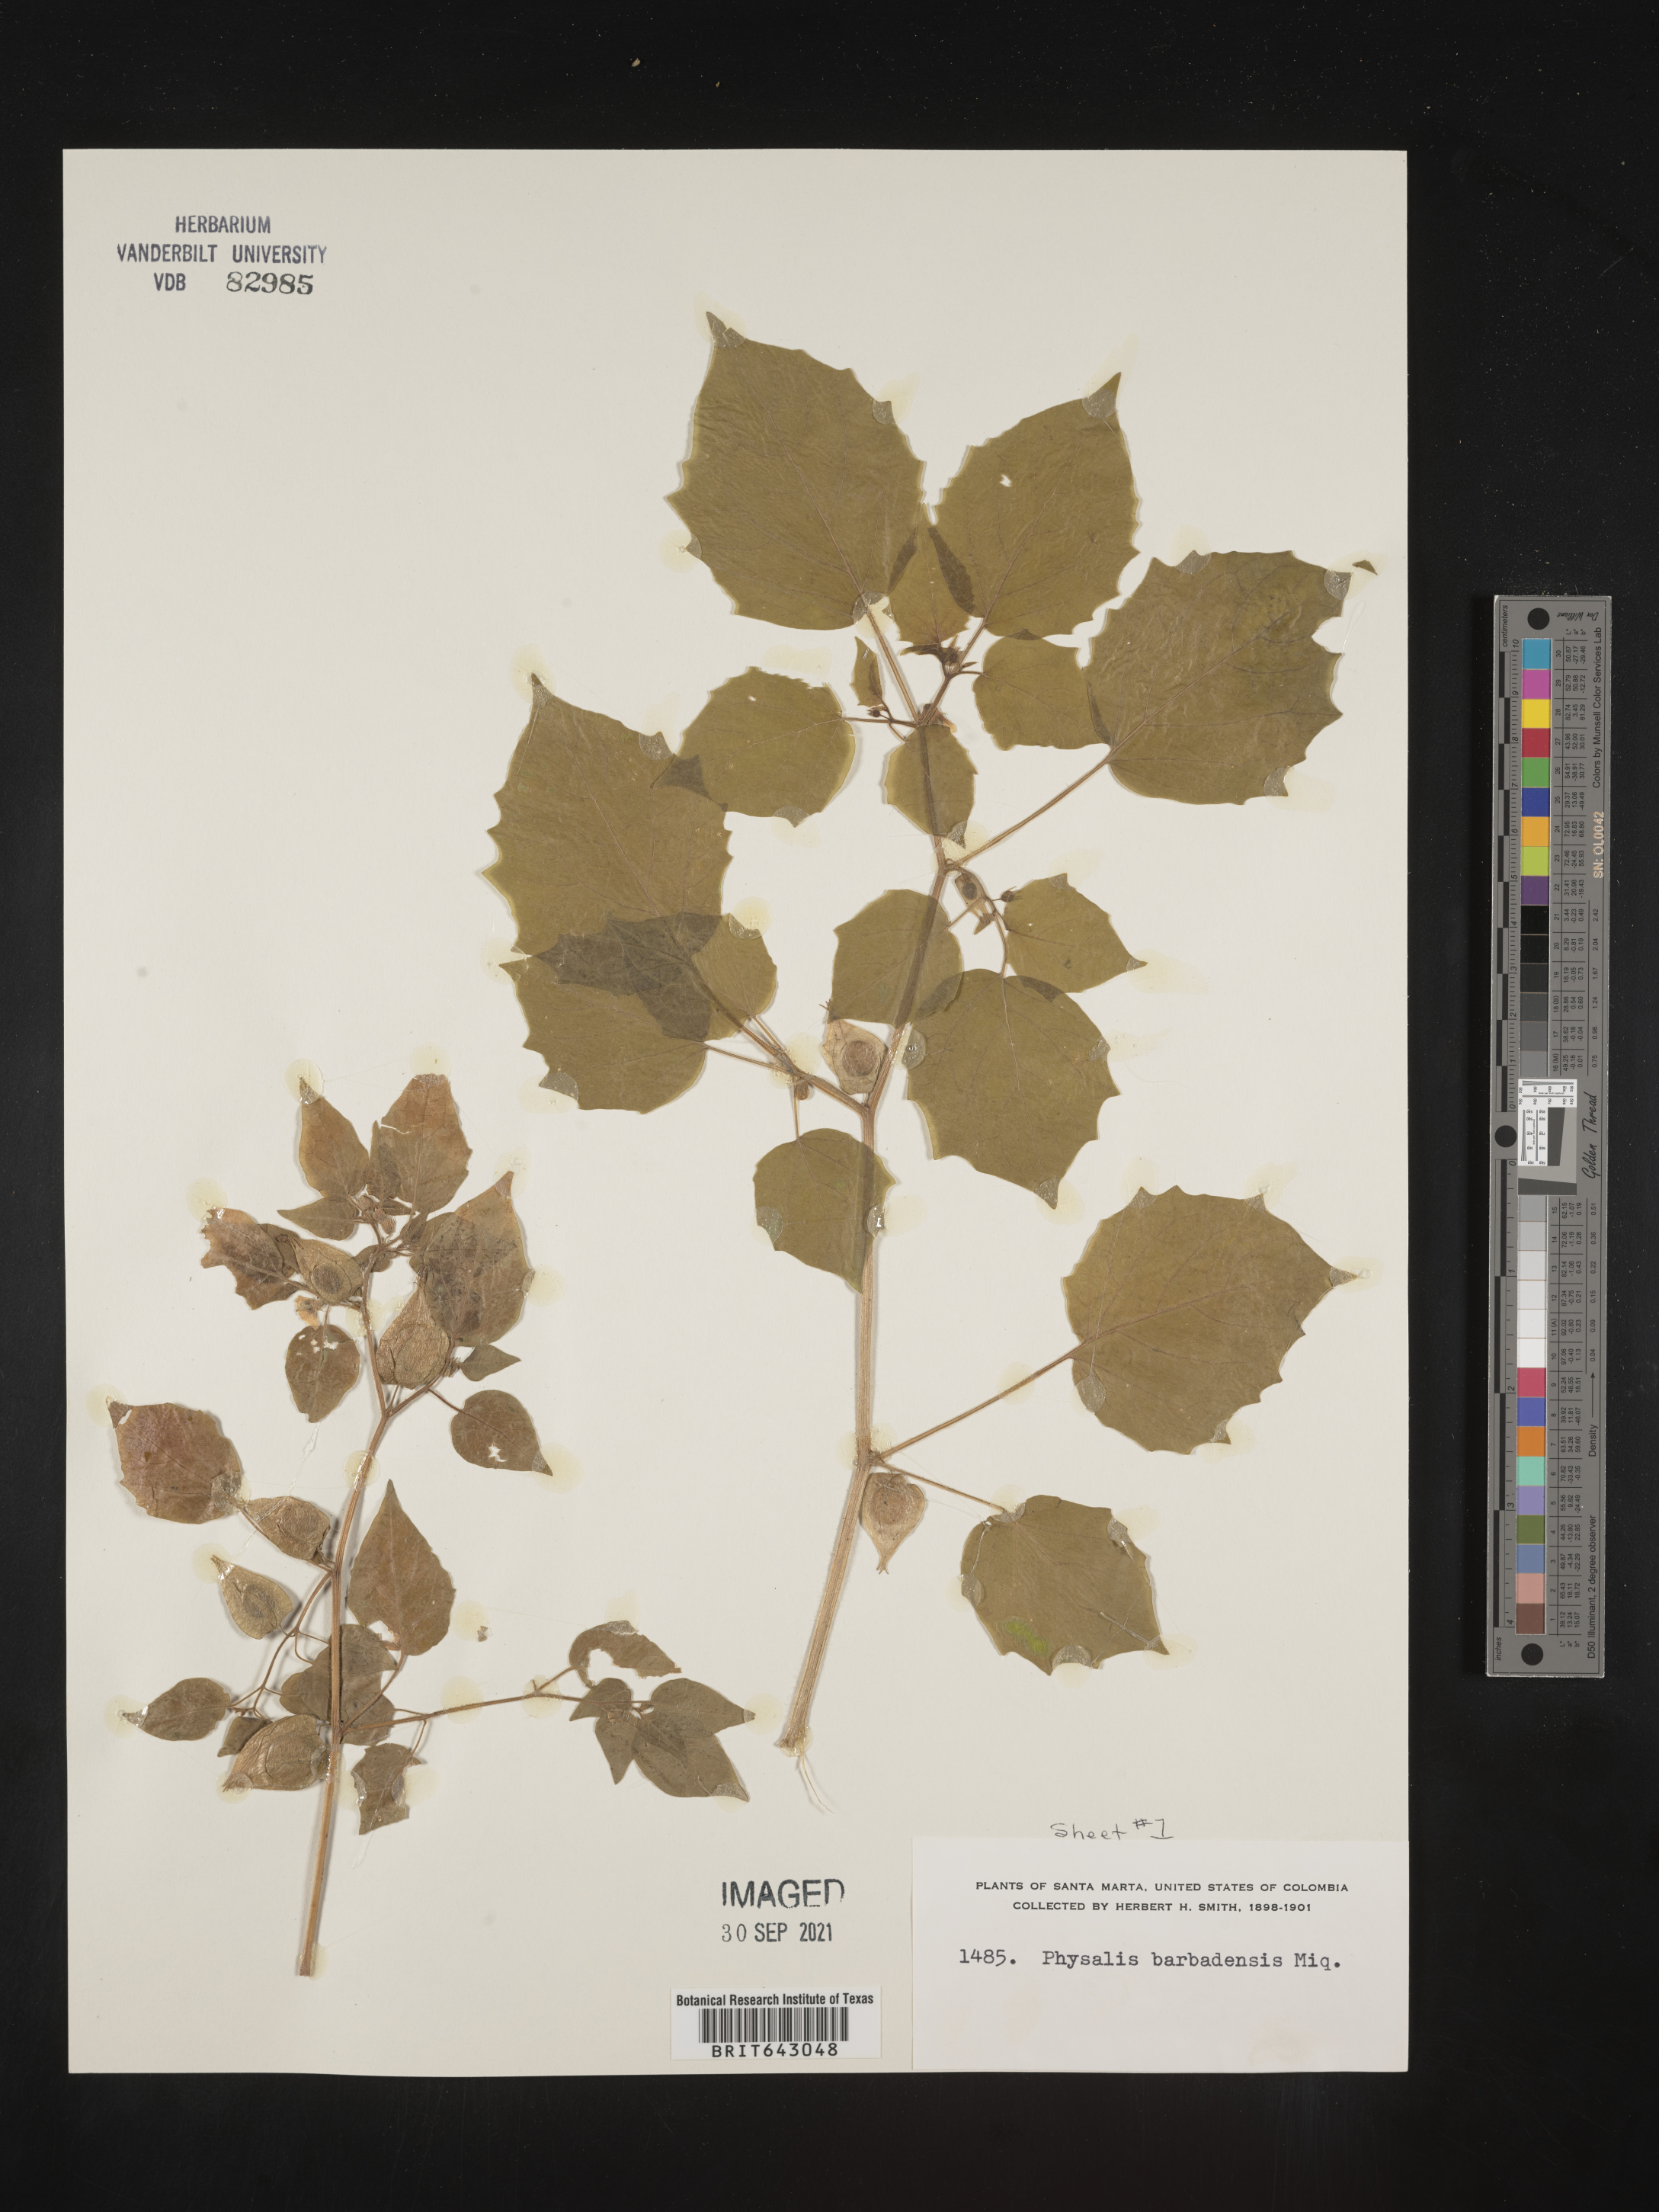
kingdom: Plantae
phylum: Tracheophyta
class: Magnoliopsida
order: Solanales
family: Solanaceae
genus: Physalis
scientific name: Physalis
